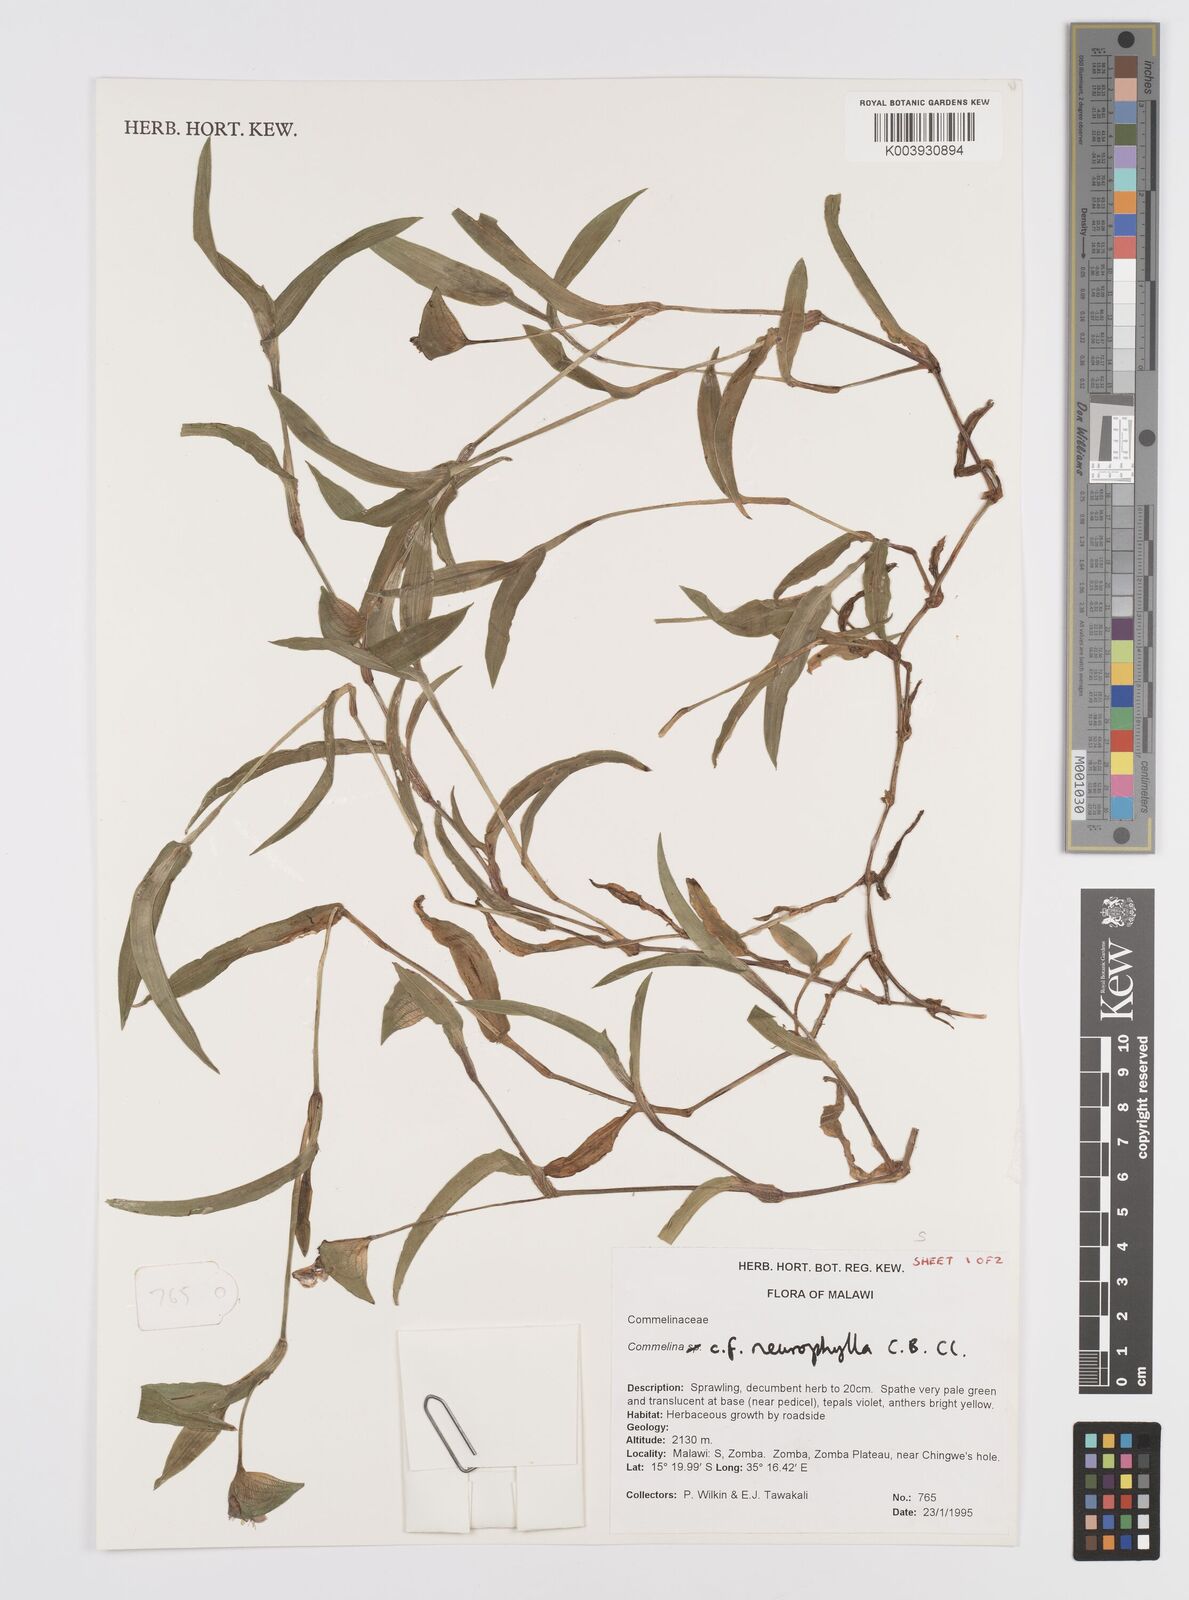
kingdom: Plantae
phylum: Tracheophyta
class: Liliopsida
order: Commelinales
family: Commelinaceae
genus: Commelina
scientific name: Commelina neurophylla
